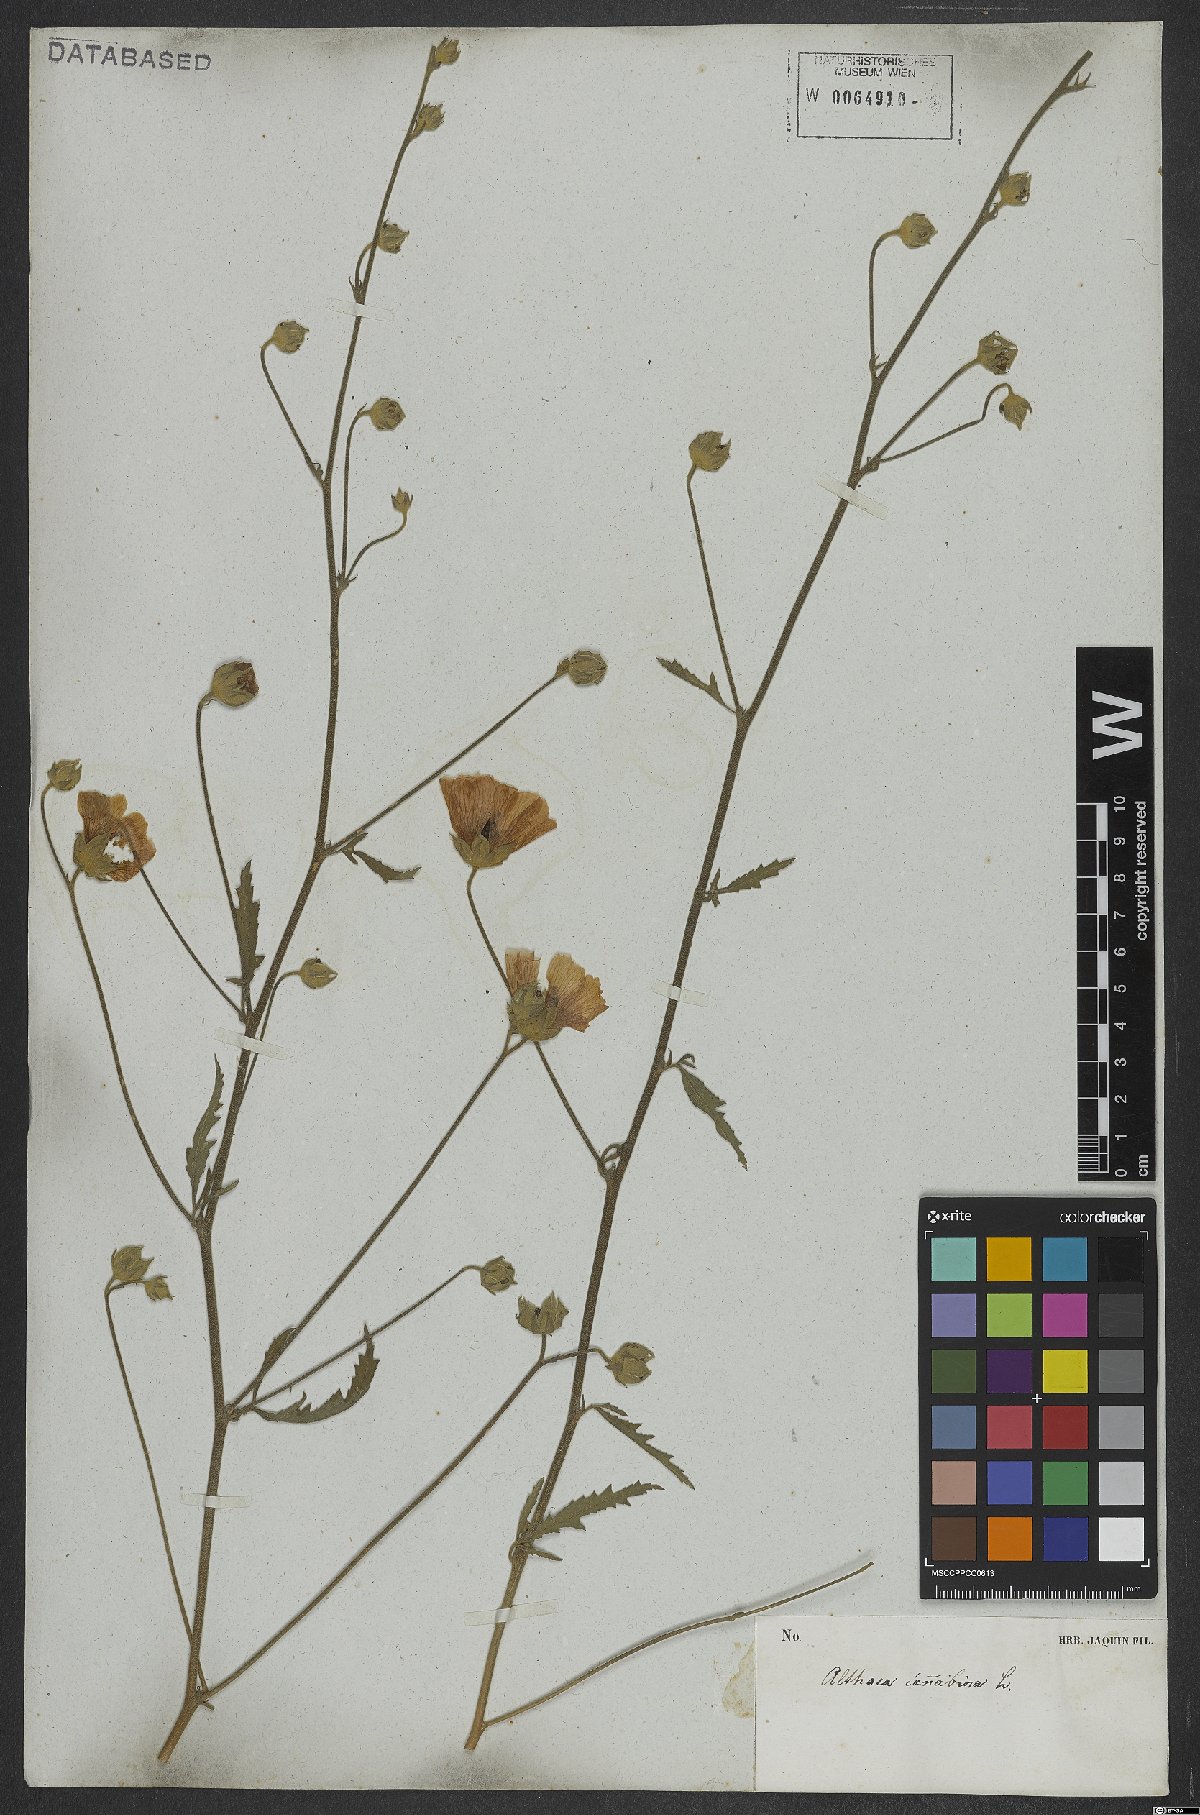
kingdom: Plantae
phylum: Tracheophyta
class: Magnoliopsida
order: Malvales
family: Malvaceae
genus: Althaea
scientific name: Althaea cannabina
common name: Palm-leaf marshmallow
